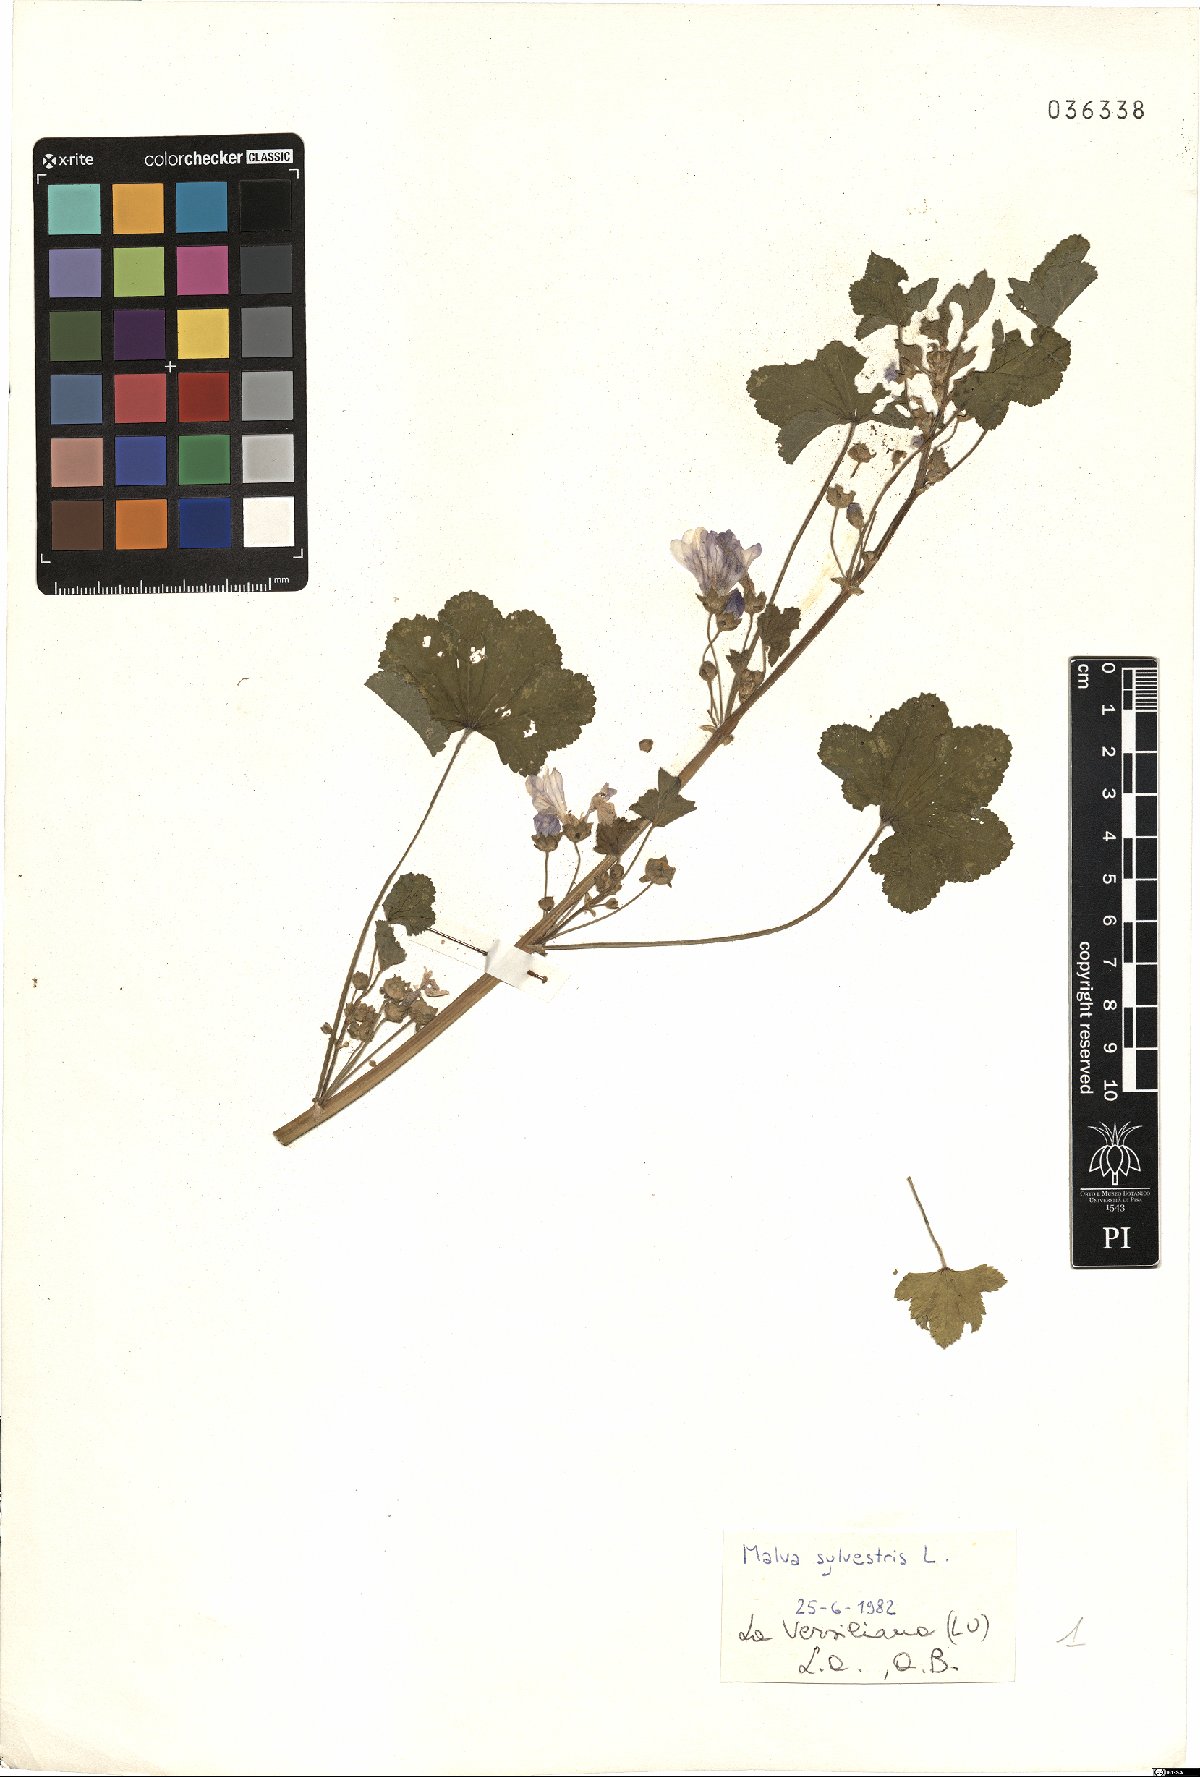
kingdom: Plantae
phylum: Tracheophyta
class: Magnoliopsida
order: Malvales
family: Malvaceae
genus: Malva
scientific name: Malva sylvestris
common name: Common mallow
